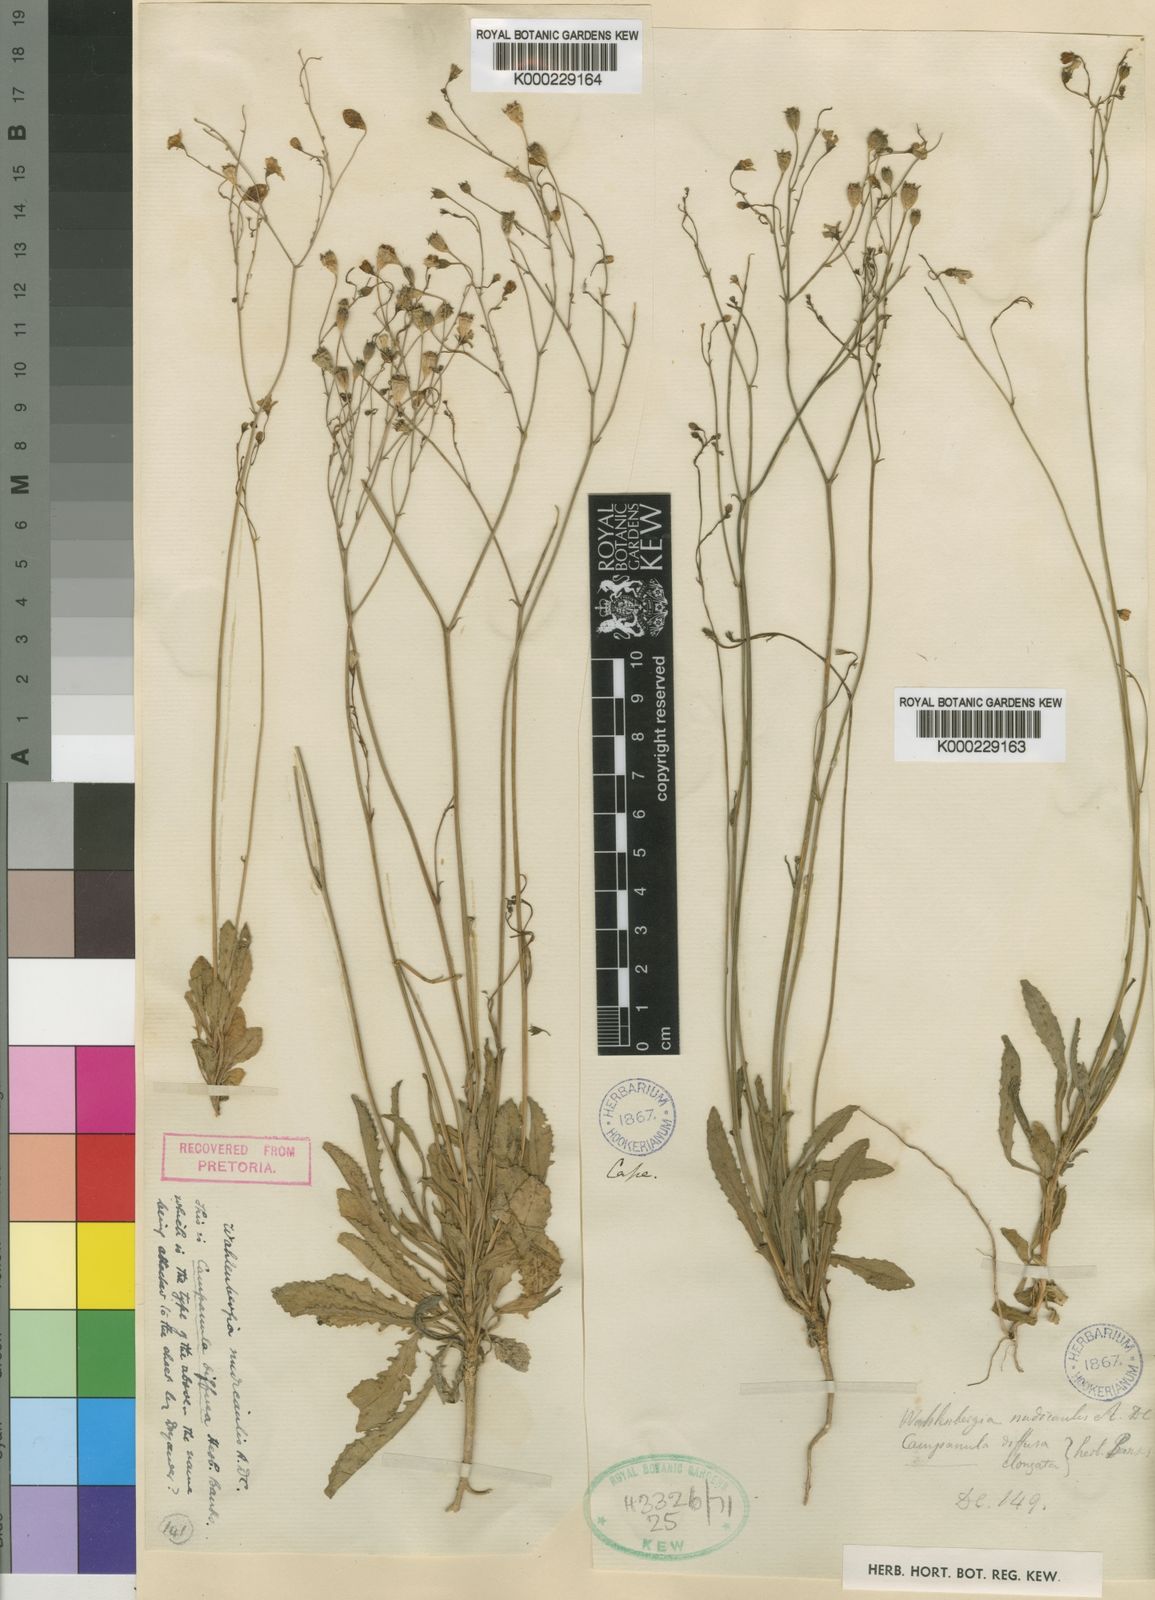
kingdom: Plantae
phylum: Tracheophyta
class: Magnoliopsida
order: Asterales
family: Campanulaceae
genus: Wahlenbergia
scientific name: Wahlenbergia androsacea
